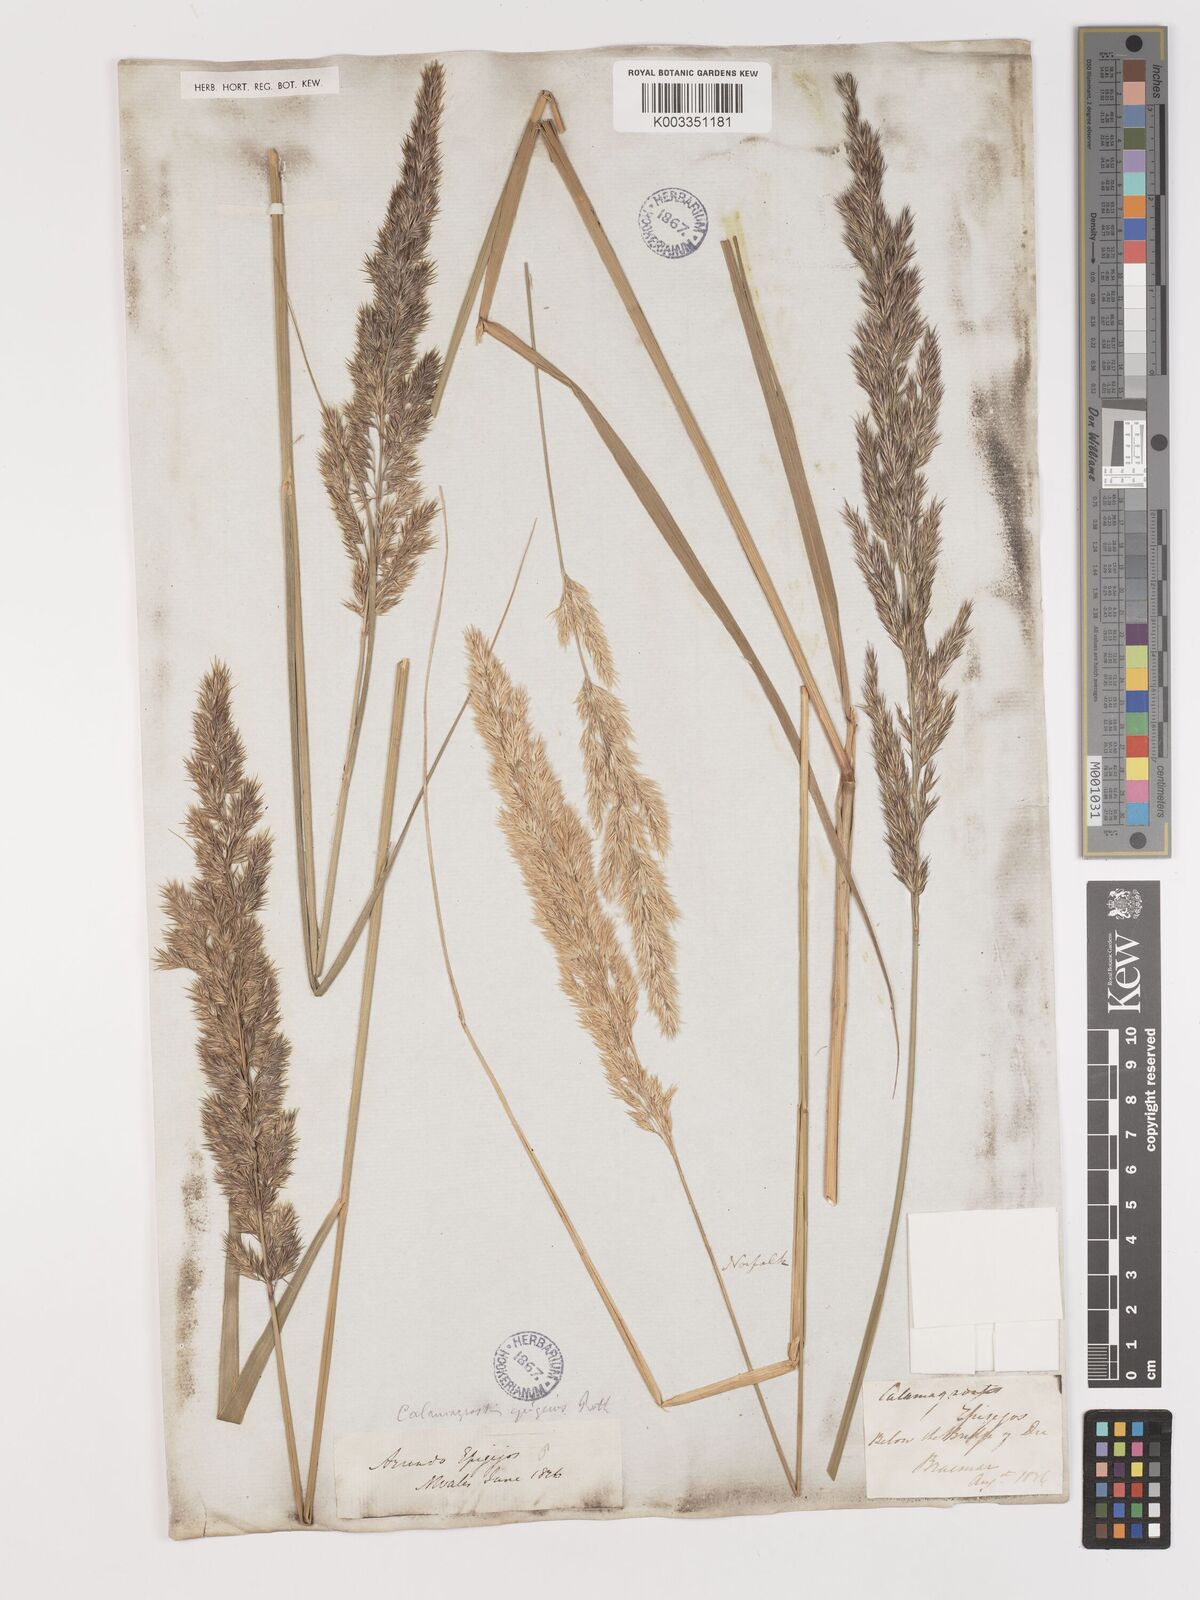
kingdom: Plantae
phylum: Tracheophyta
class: Liliopsida
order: Poales
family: Poaceae
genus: Calamagrostis
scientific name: Calamagrostis
